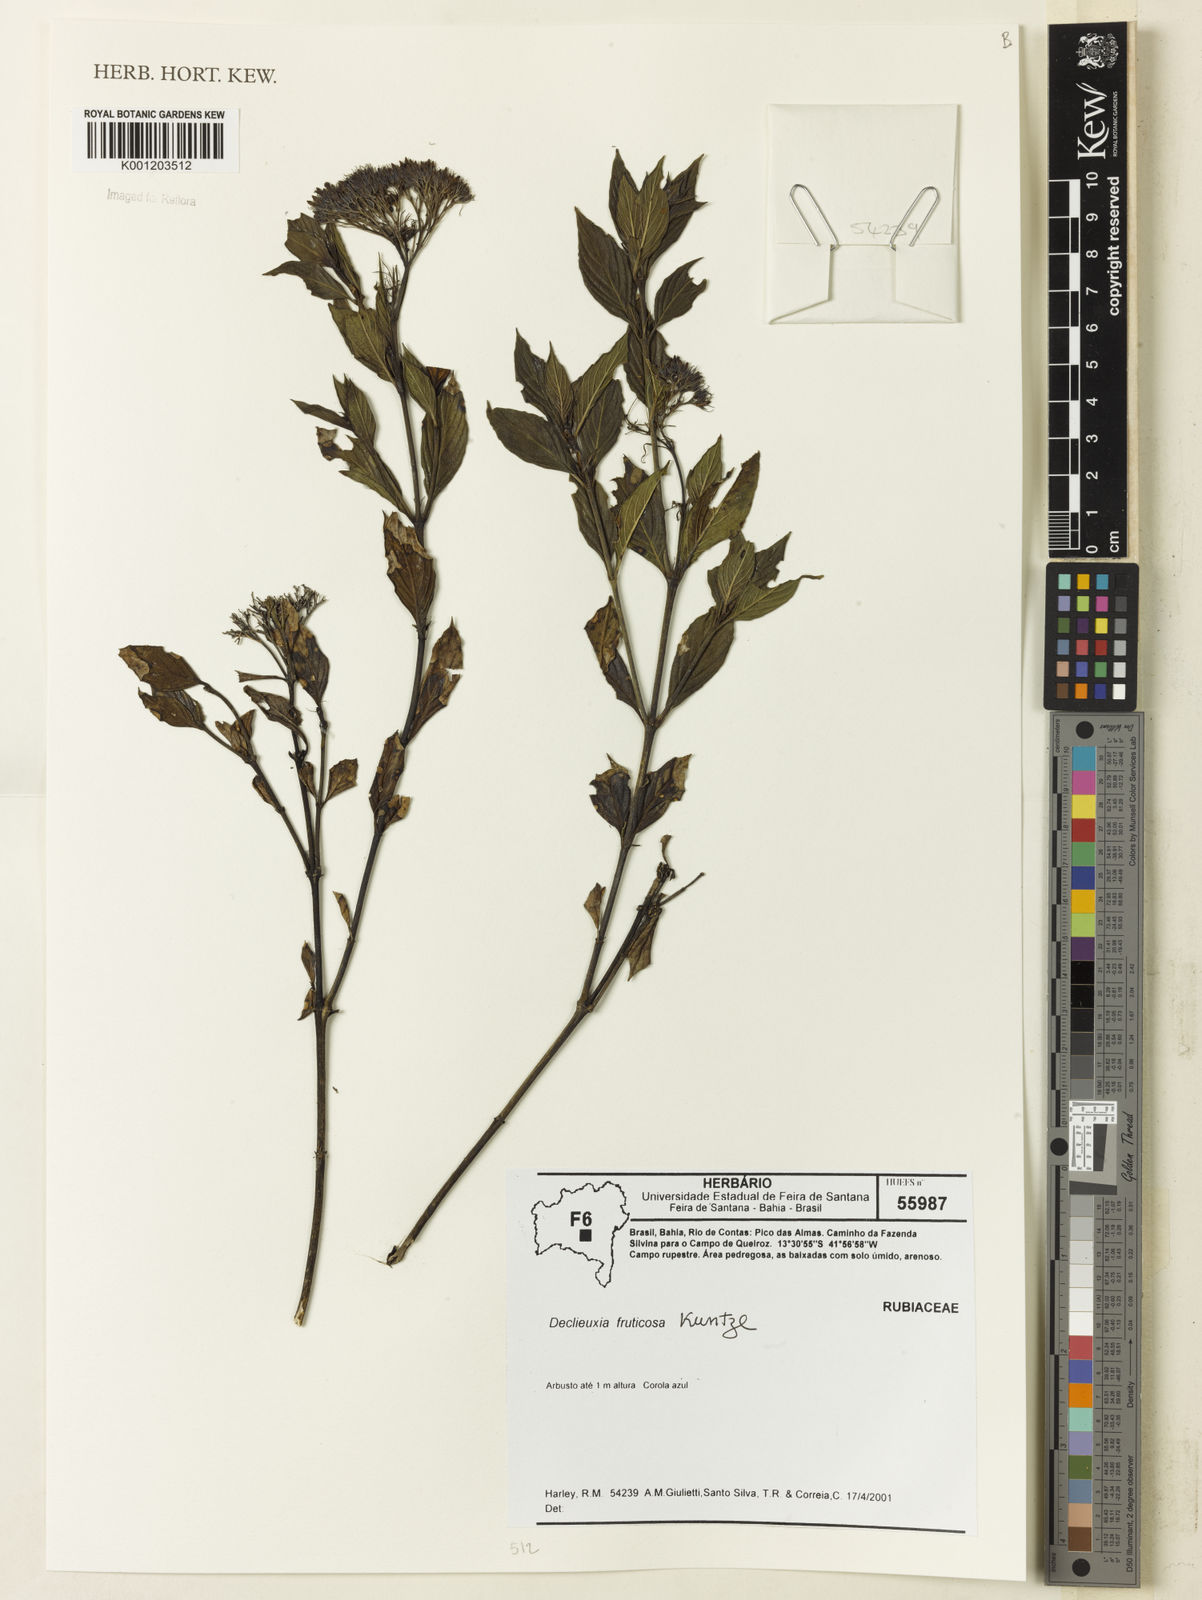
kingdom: Plantae
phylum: Tracheophyta
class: Magnoliopsida
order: Gentianales
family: Rubiaceae
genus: Declieuxia
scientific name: Declieuxia fruticosa
